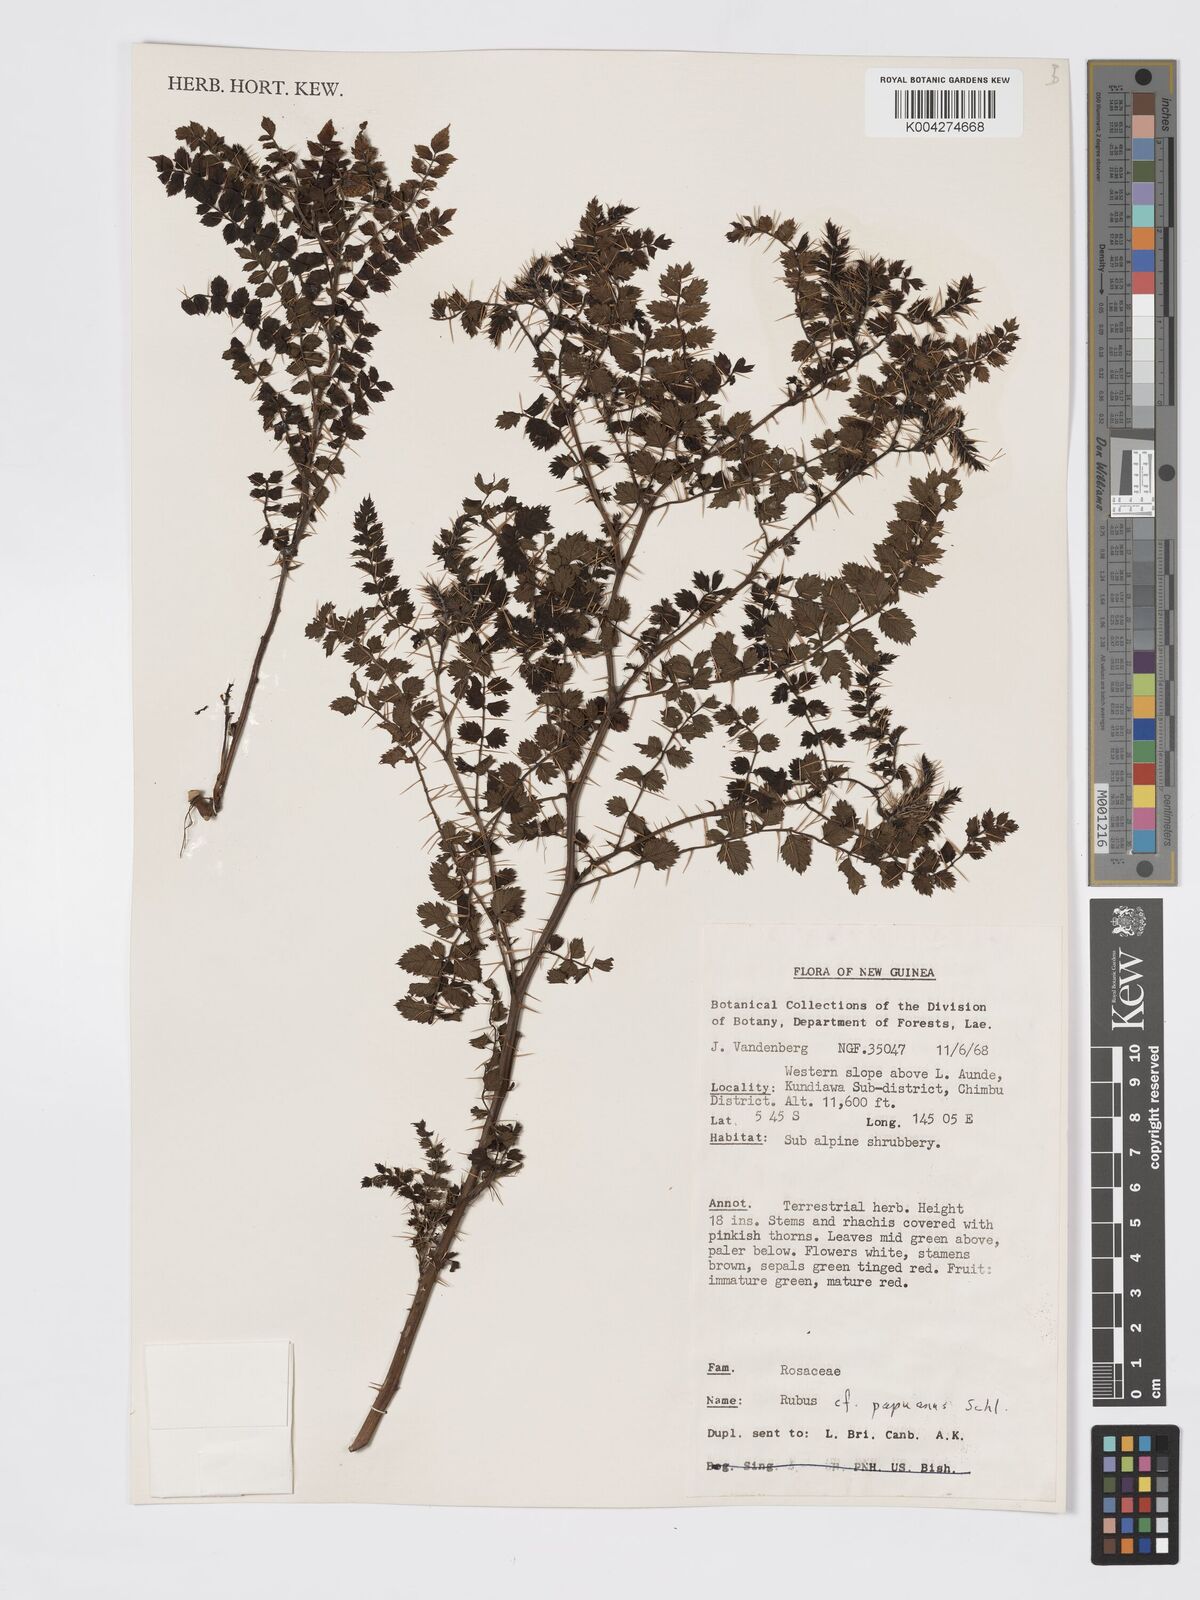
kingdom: Plantae
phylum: Tracheophyta
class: Magnoliopsida
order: Rosales
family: Rosaceae
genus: Rubus
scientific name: Rubus papuanus
